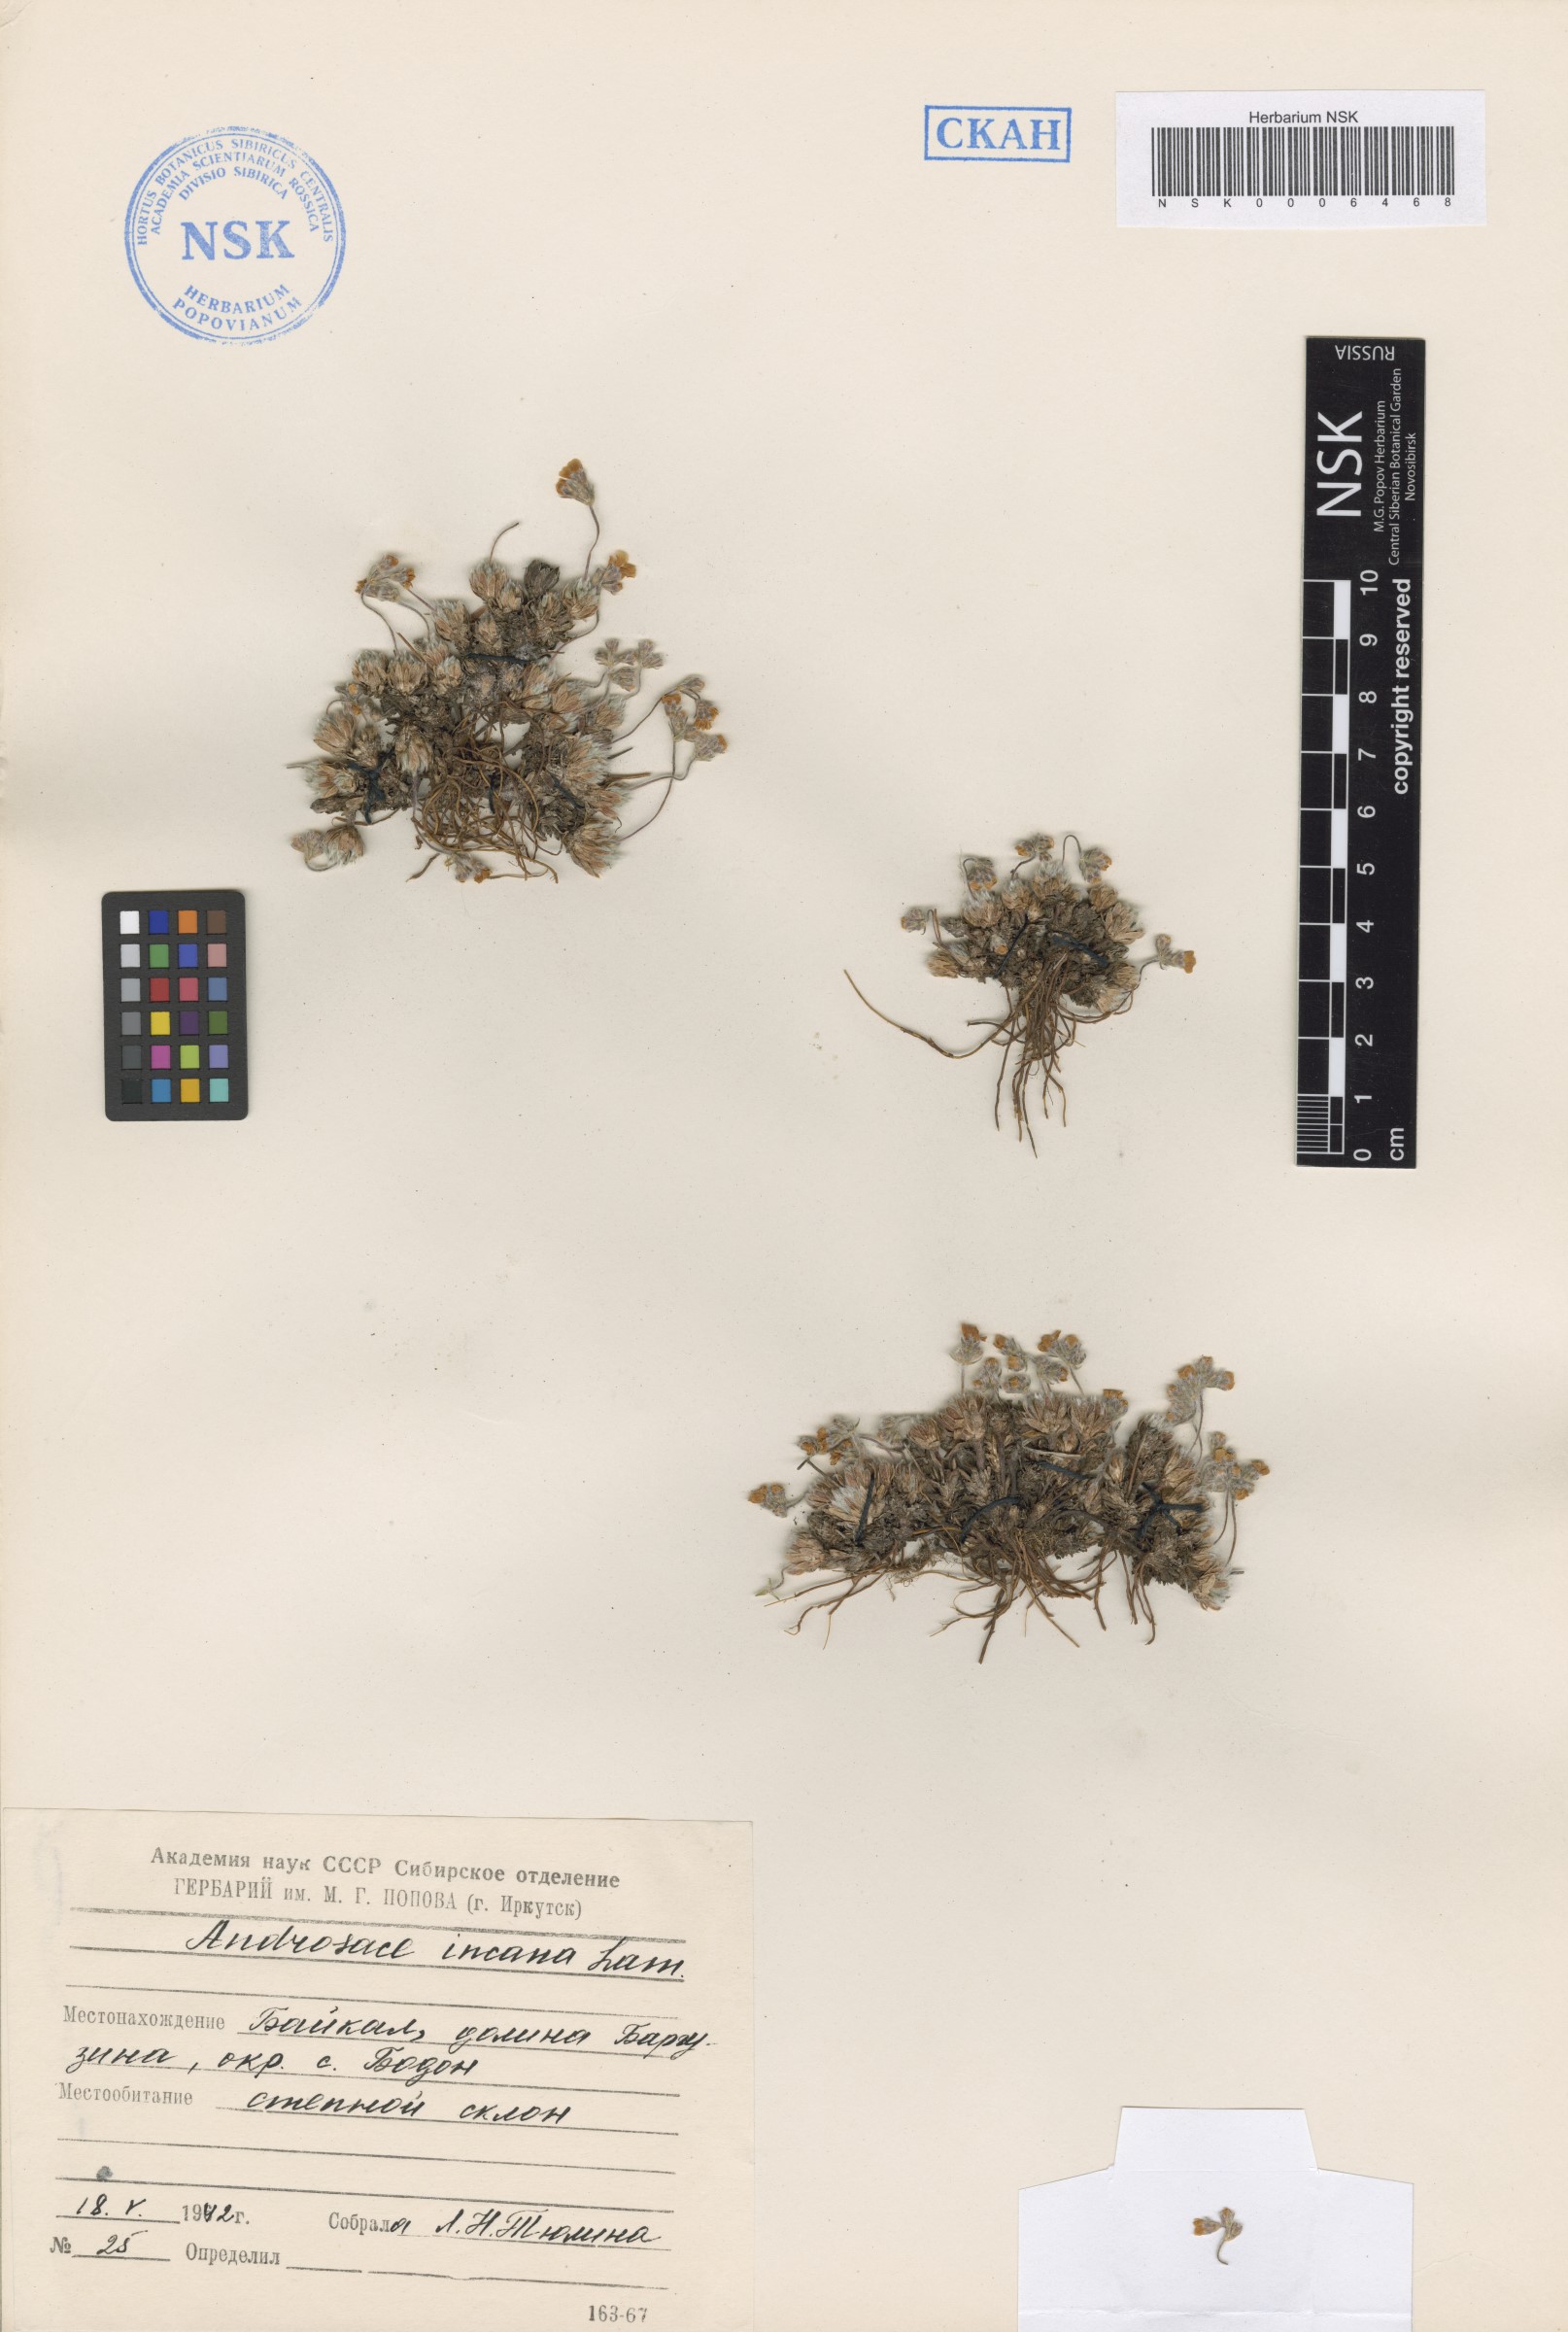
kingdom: Plantae
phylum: Tracheophyta
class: Magnoliopsida
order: Ericales
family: Primulaceae
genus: Androsace
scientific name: Androsace incana
